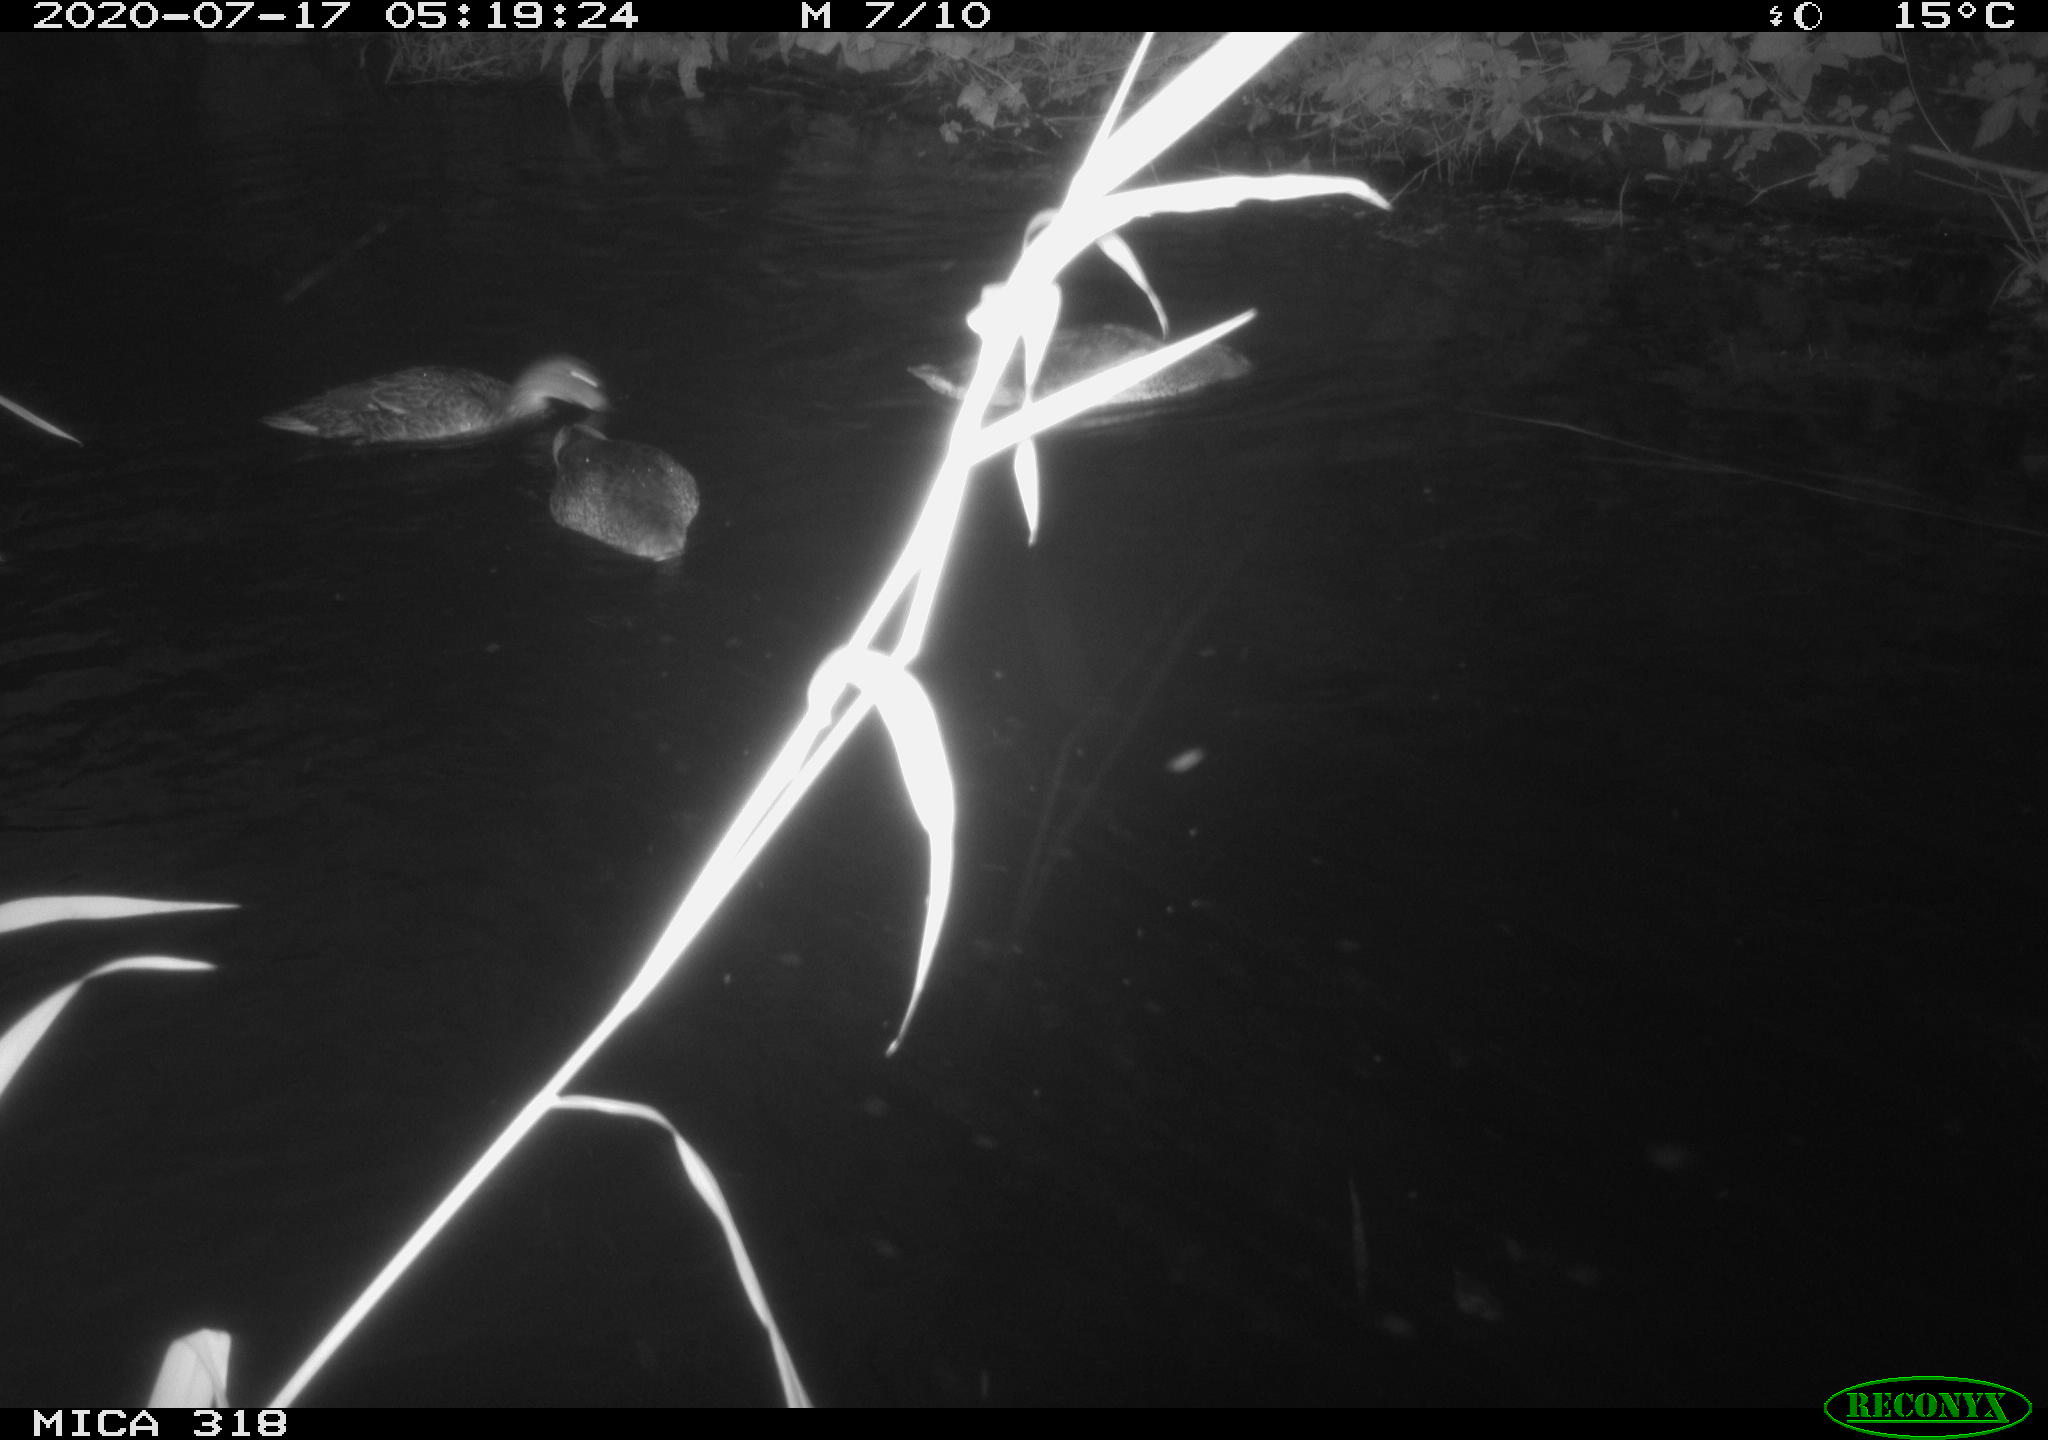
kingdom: Animalia
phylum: Chordata
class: Aves
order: Anseriformes
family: Anatidae
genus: Anas
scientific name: Anas platyrhynchos
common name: Mallard
